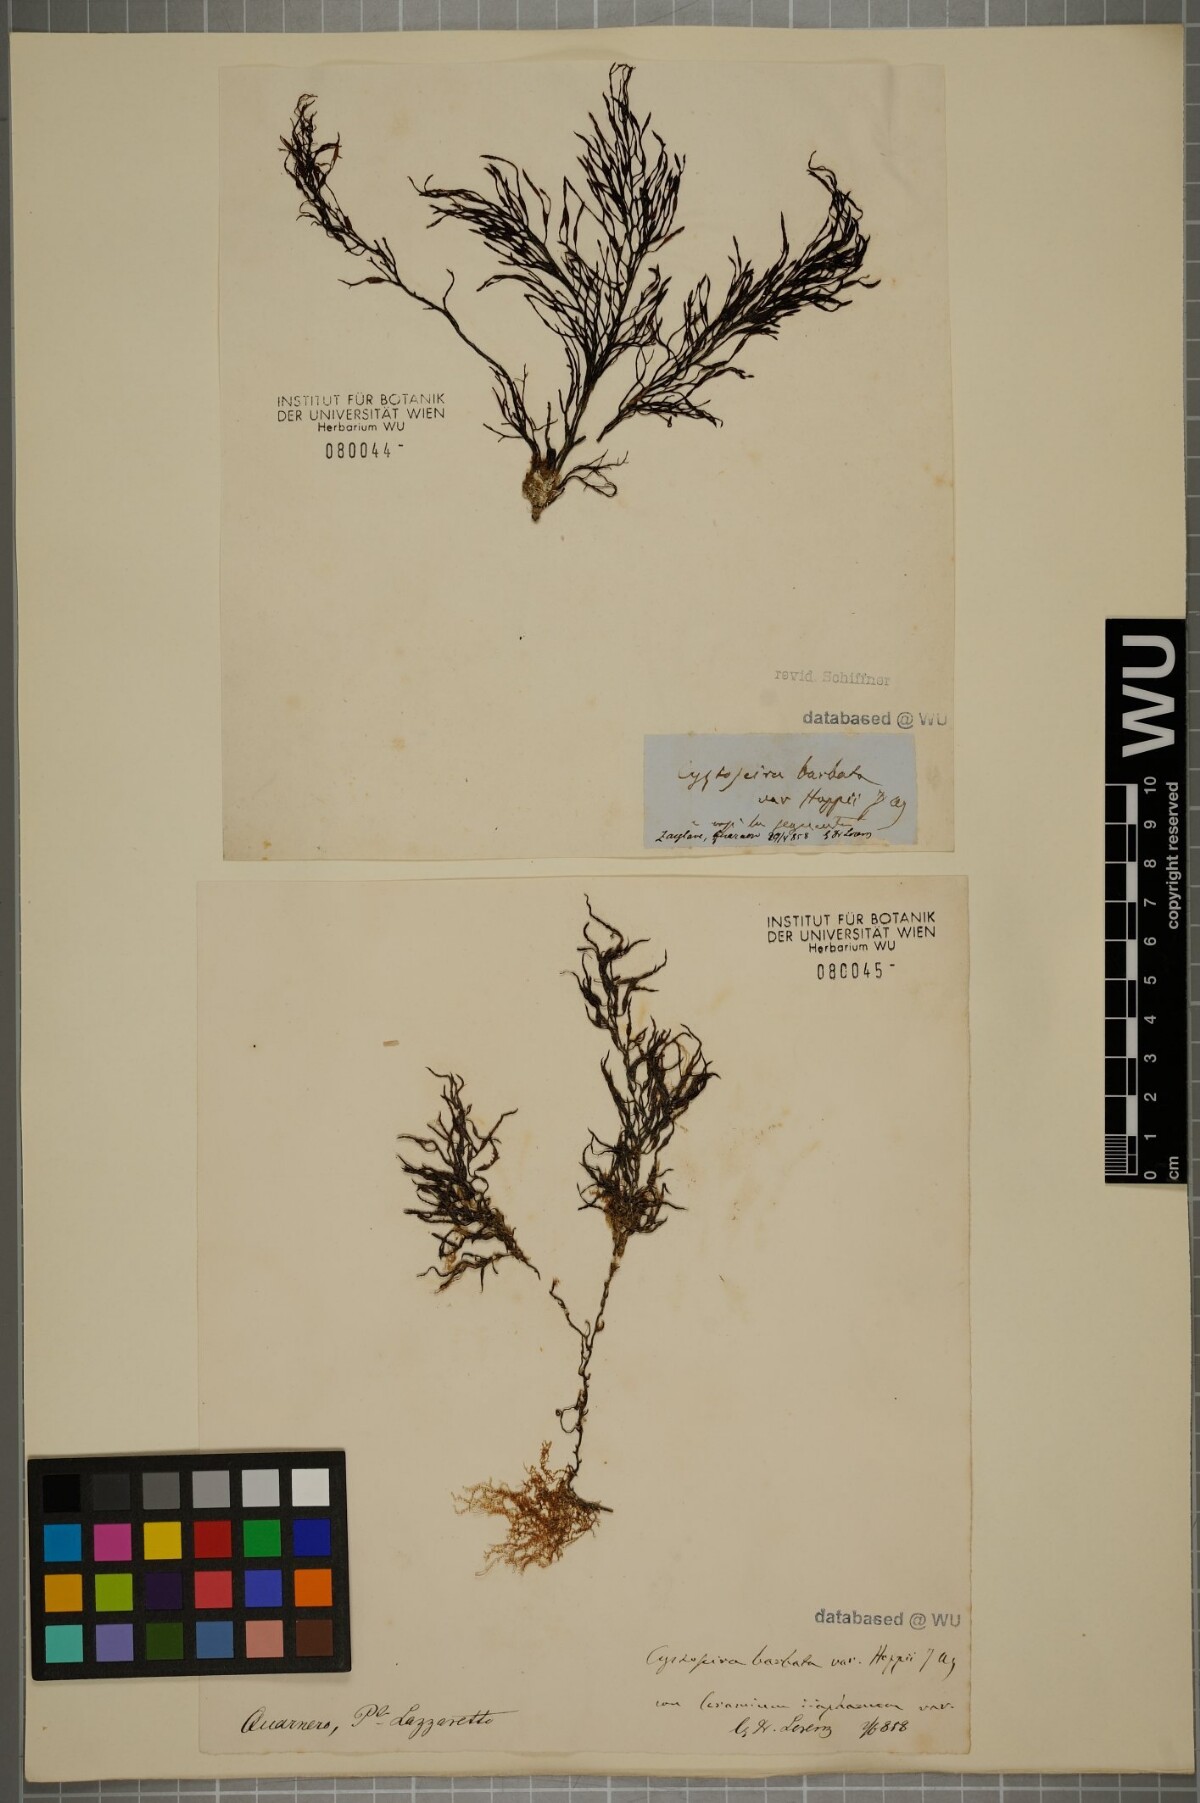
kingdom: Chromista
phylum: Ochrophyta
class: Phaeophyceae
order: Fucales
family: Sargassaceae
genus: Cystoseira
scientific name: Cystoseira Gongolaria barbata
